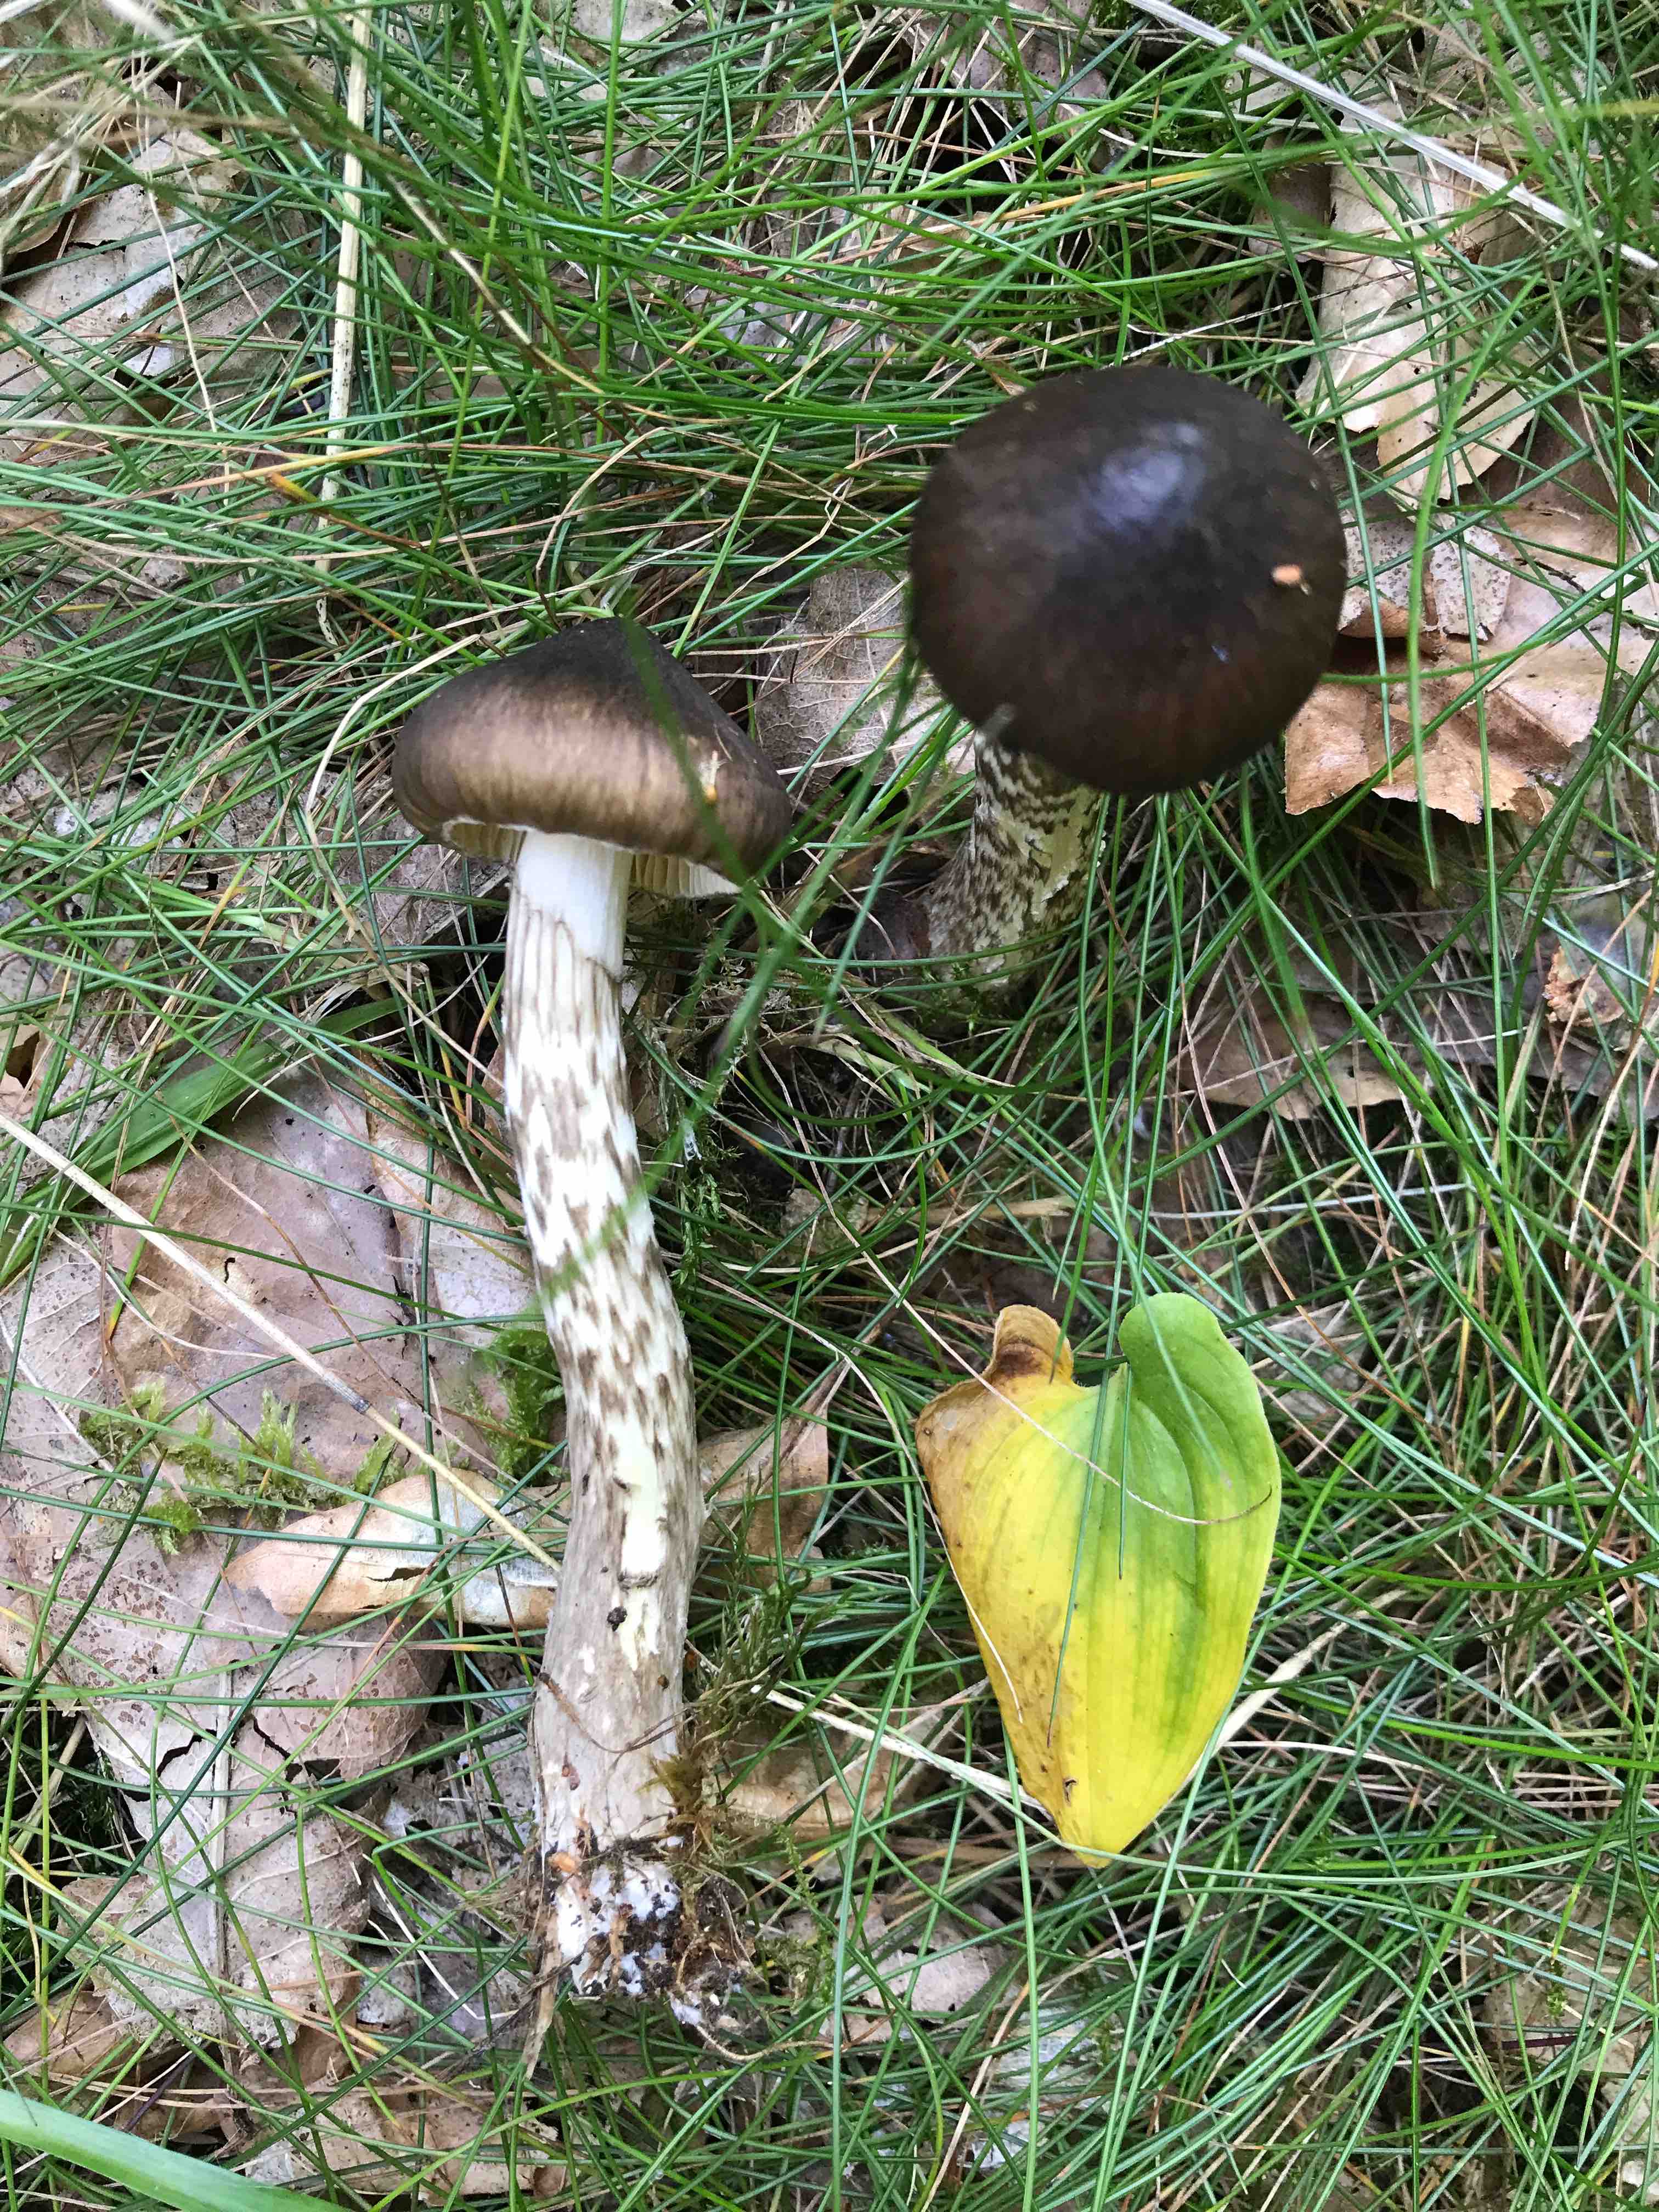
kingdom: Fungi
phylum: Basidiomycota
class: Agaricomycetes
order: Agaricales
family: Hygrophoraceae
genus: Hygrophorus
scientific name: Hygrophorus
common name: sneglehat
